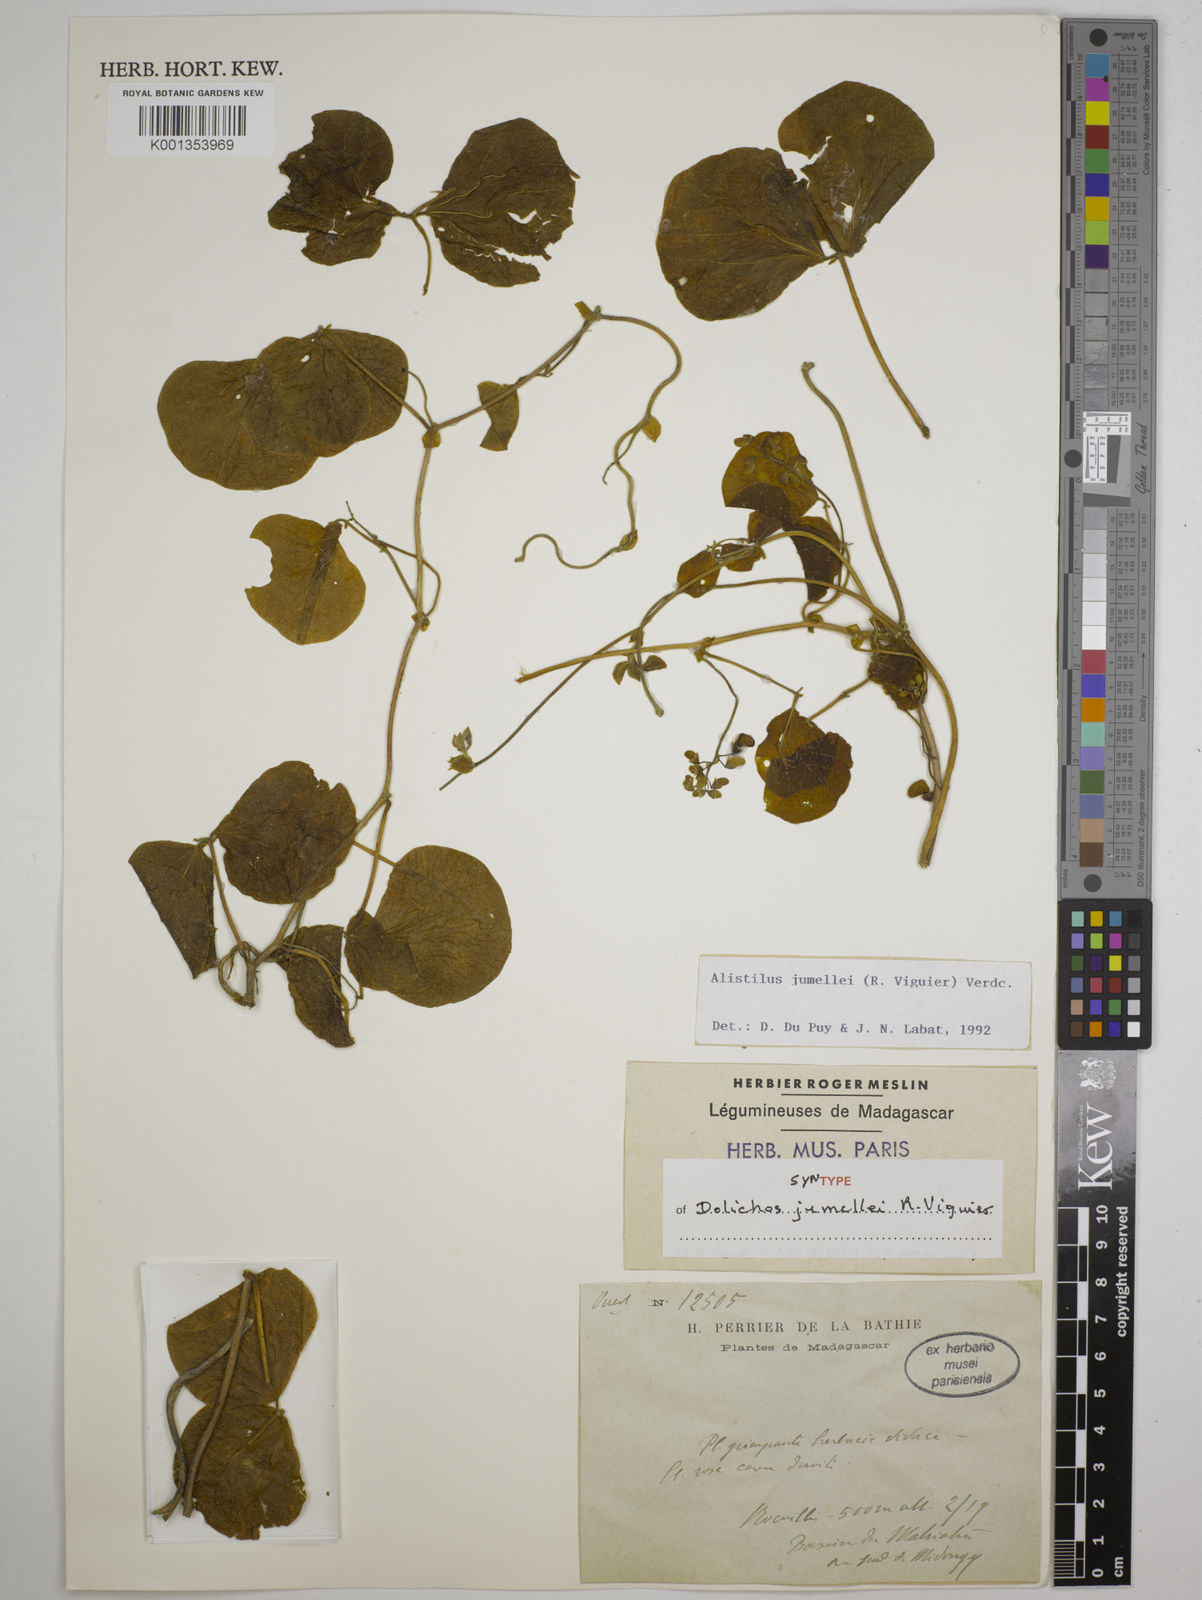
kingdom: Plantae
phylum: Tracheophyta
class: Magnoliopsida
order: Fabales
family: Fabaceae
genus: Alistilus
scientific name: Alistilus jumellei
